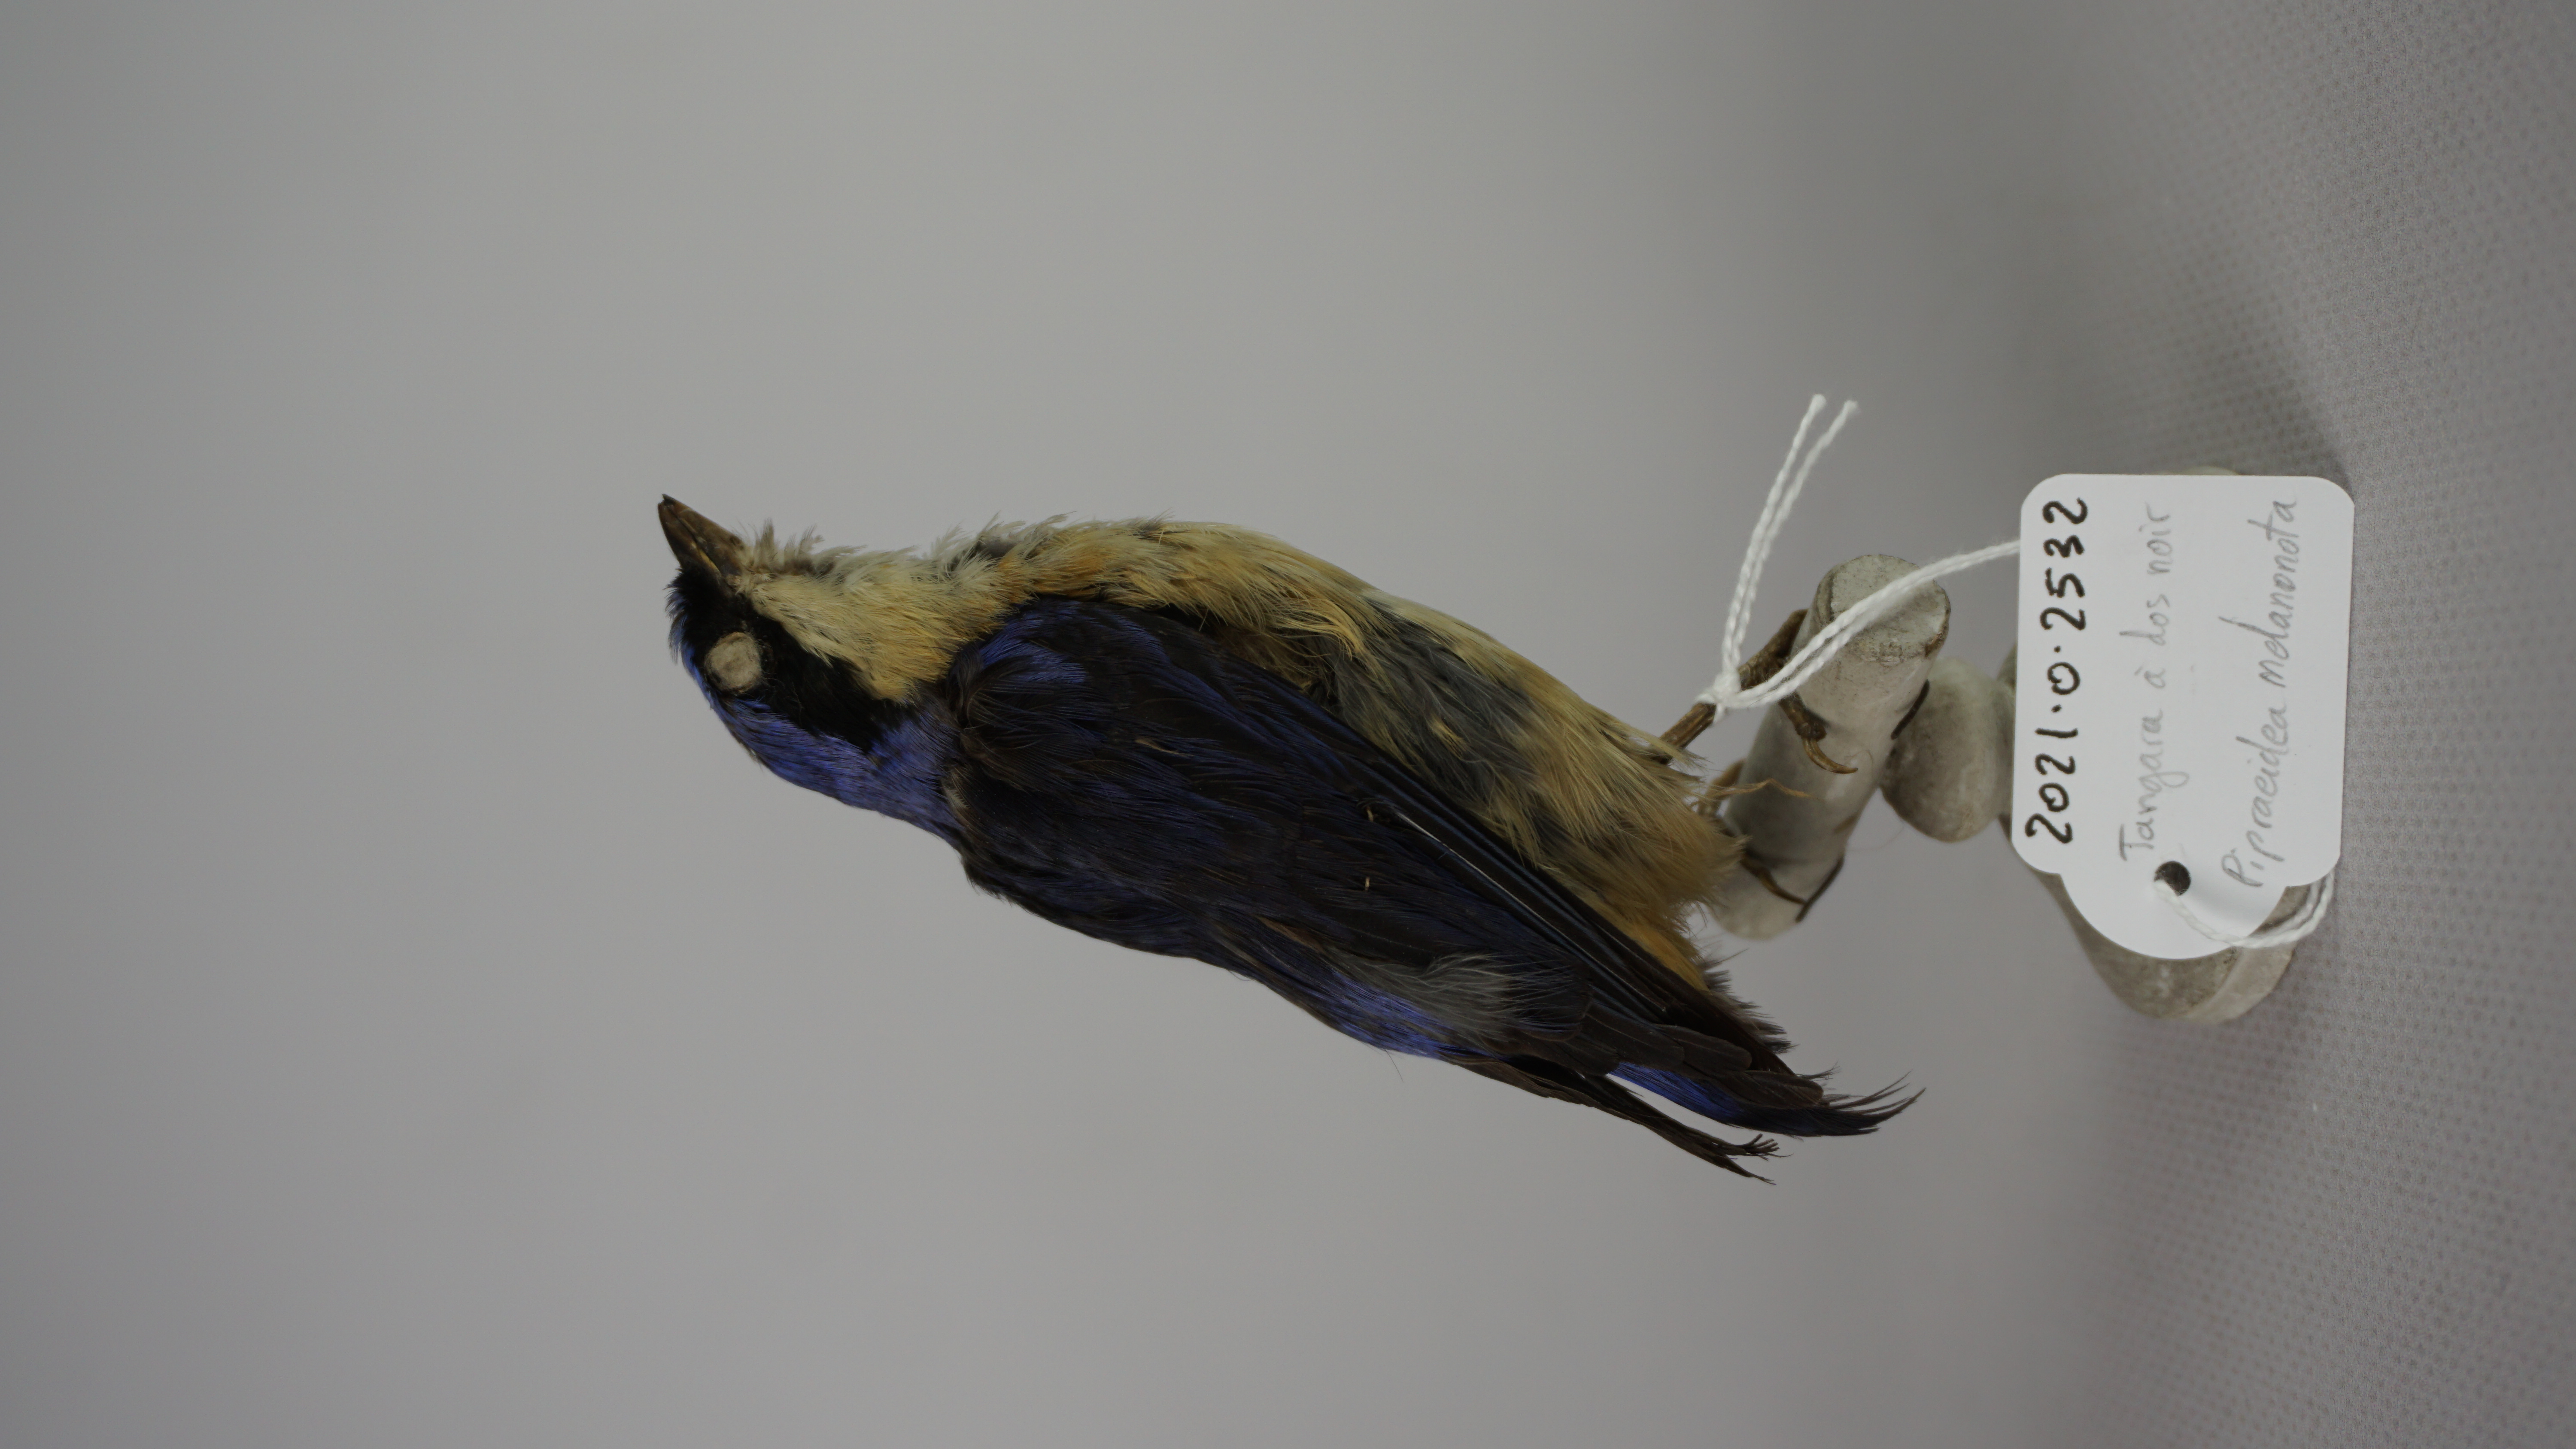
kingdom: Animalia
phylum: Chordata
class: Aves
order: Passeriformes
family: Thraupidae
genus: Diglossa
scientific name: Diglossa humeralis
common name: Black flowerpiercer
